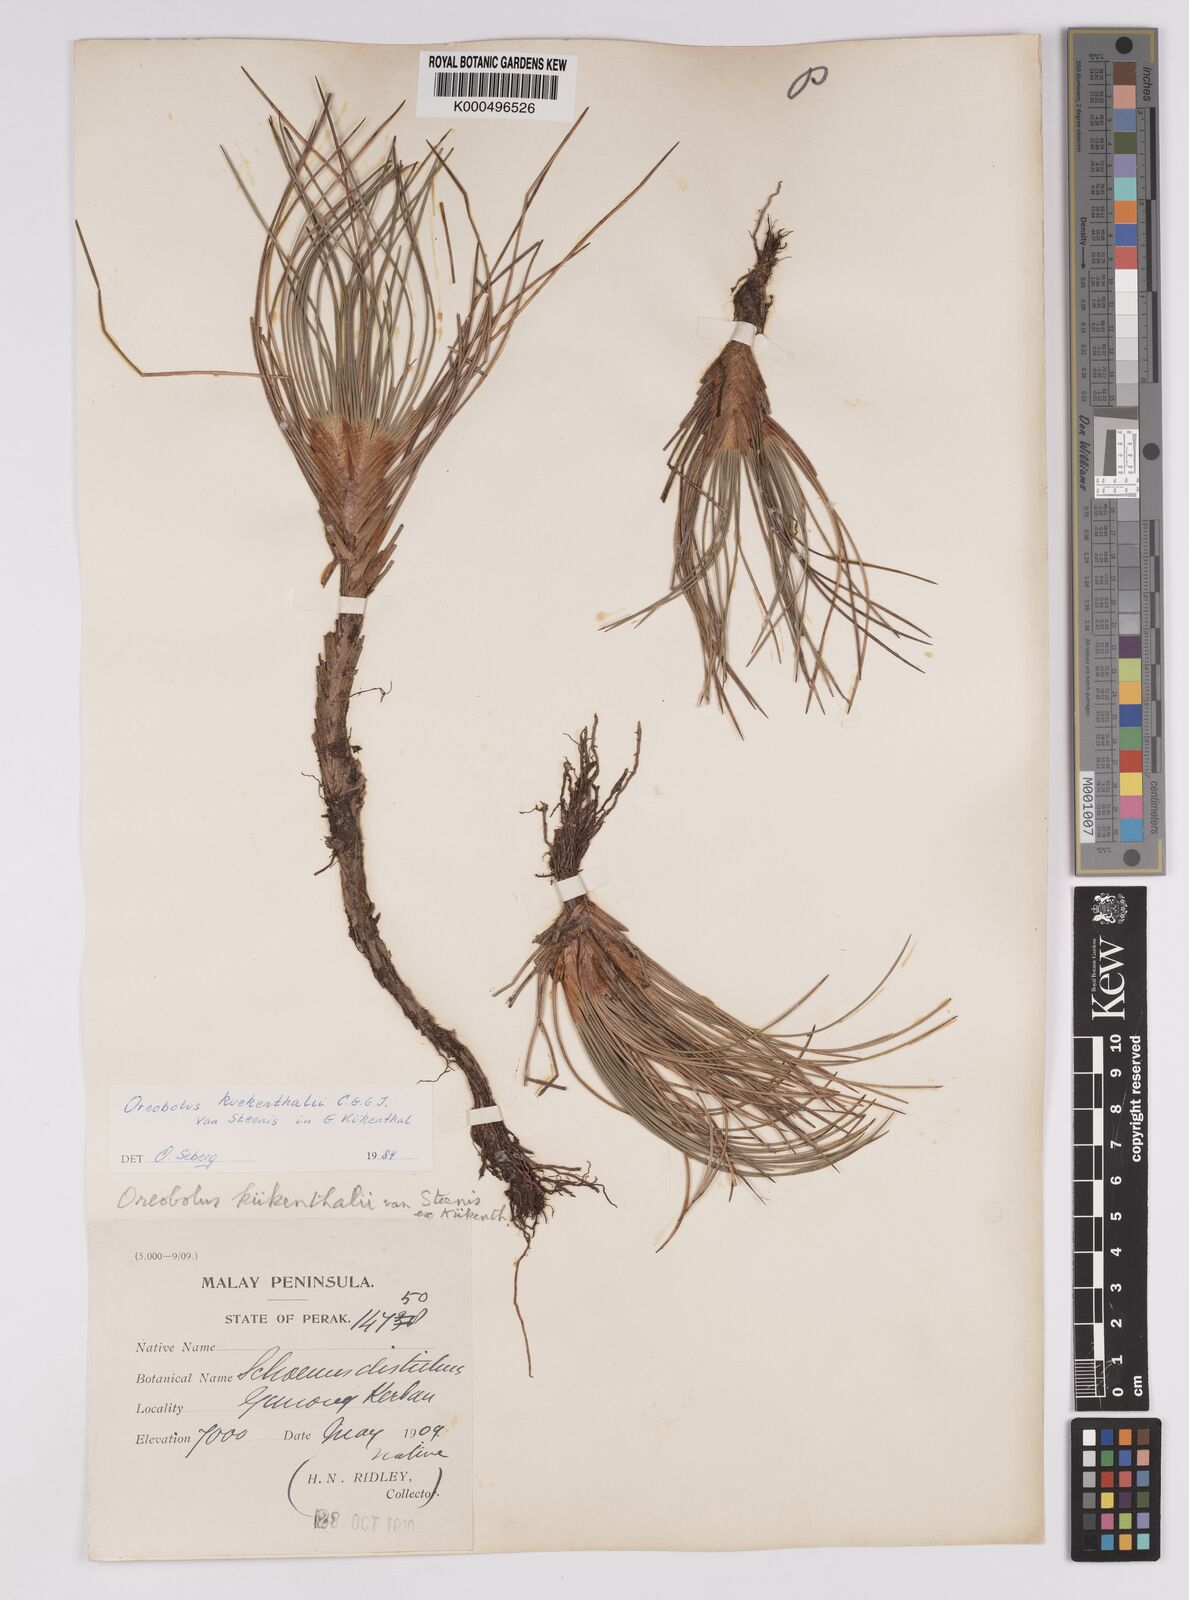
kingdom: Plantae
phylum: Tracheophyta
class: Liliopsida
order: Poales
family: Cyperaceae
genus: Oreobolus
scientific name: Oreobolus
